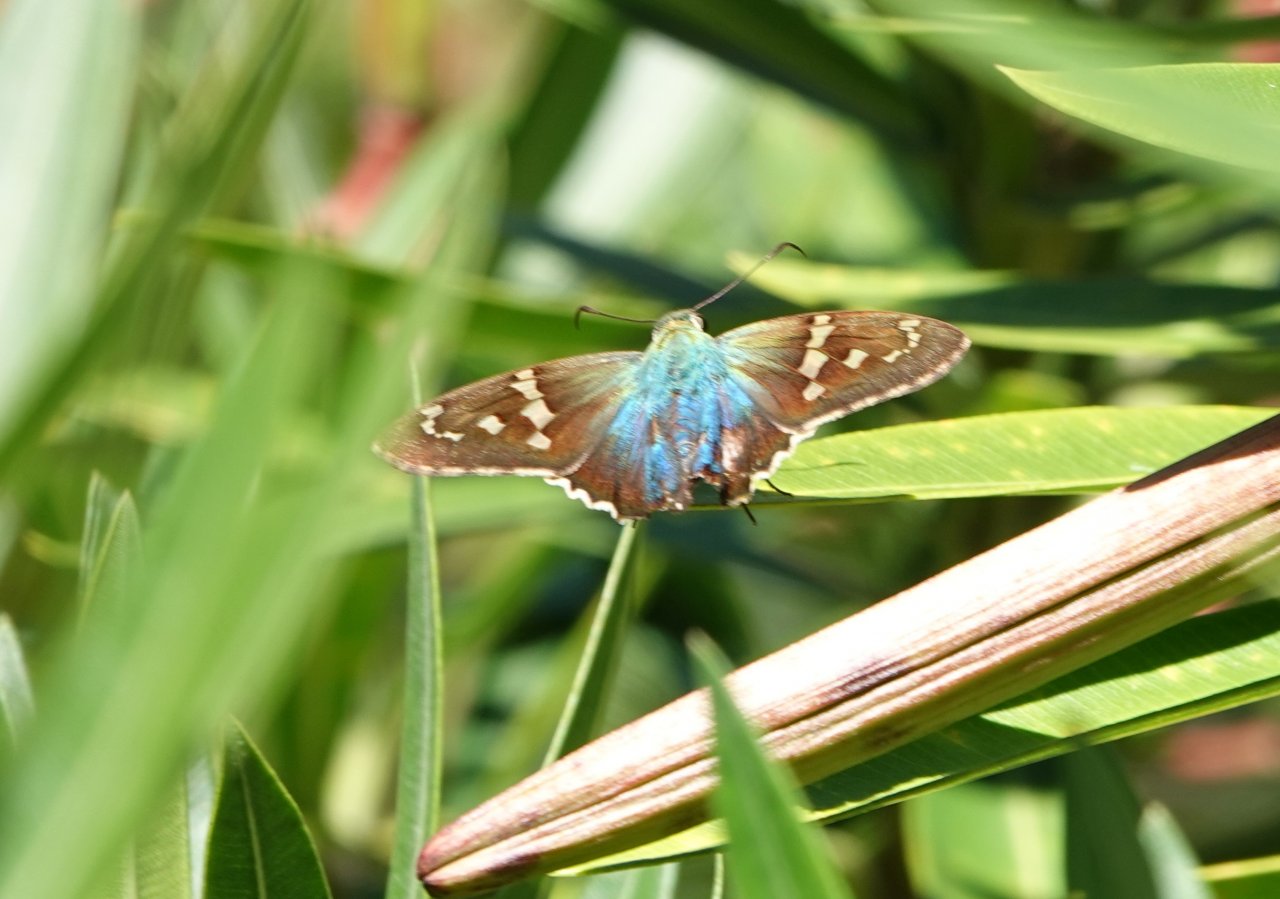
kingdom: Animalia
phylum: Arthropoda
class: Insecta
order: Lepidoptera
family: Hesperiidae
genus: Urbanus
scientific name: Urbanus proteus
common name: Long-tailed Skipper
